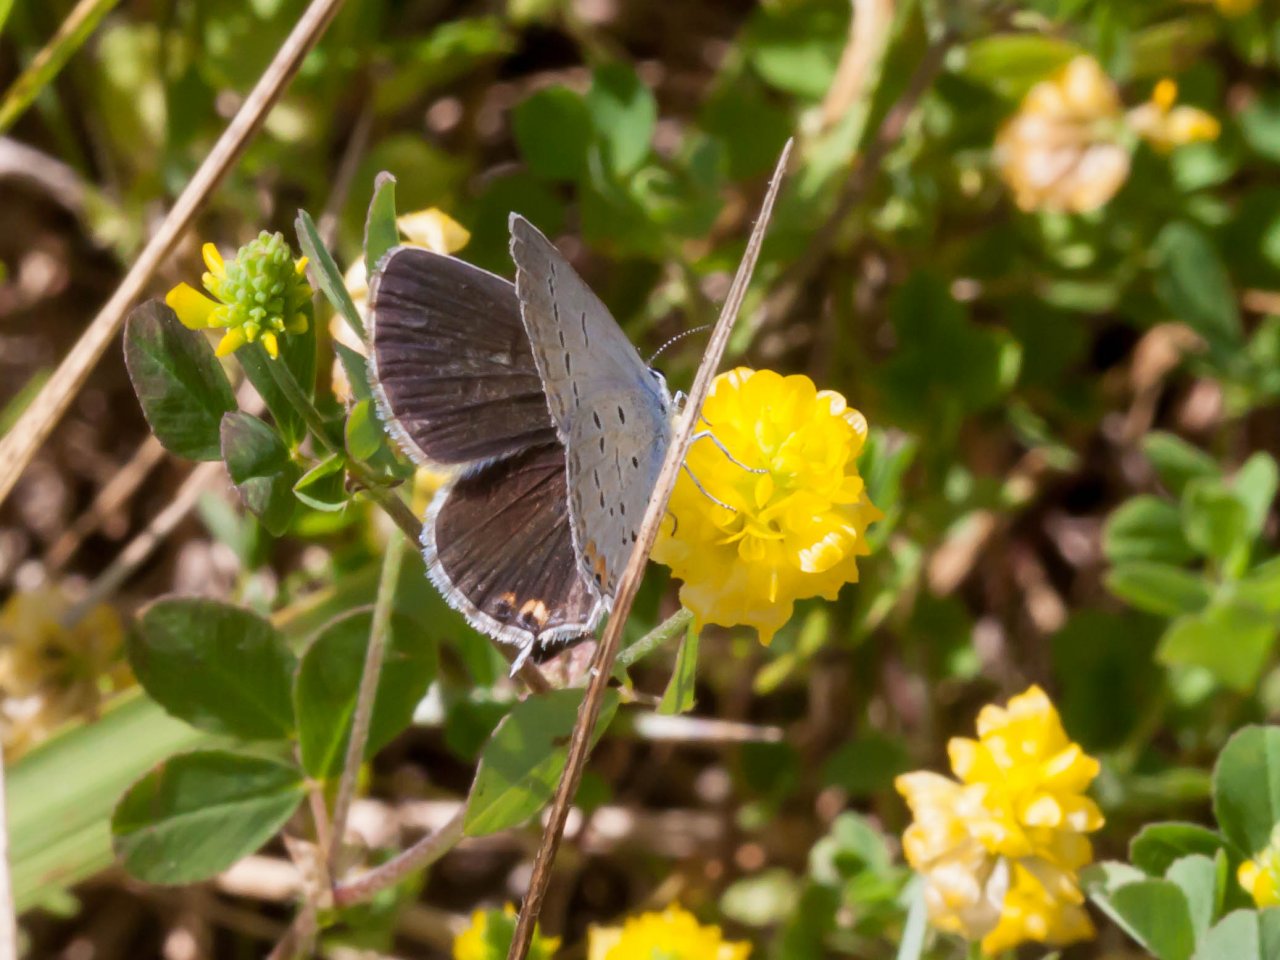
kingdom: Animalia
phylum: Arthropoda
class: Insecta
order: Lepidoptera
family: Lycaenidae
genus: Elkalyce
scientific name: Elkalyce comyntas
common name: Eastern Tailed-Blue
